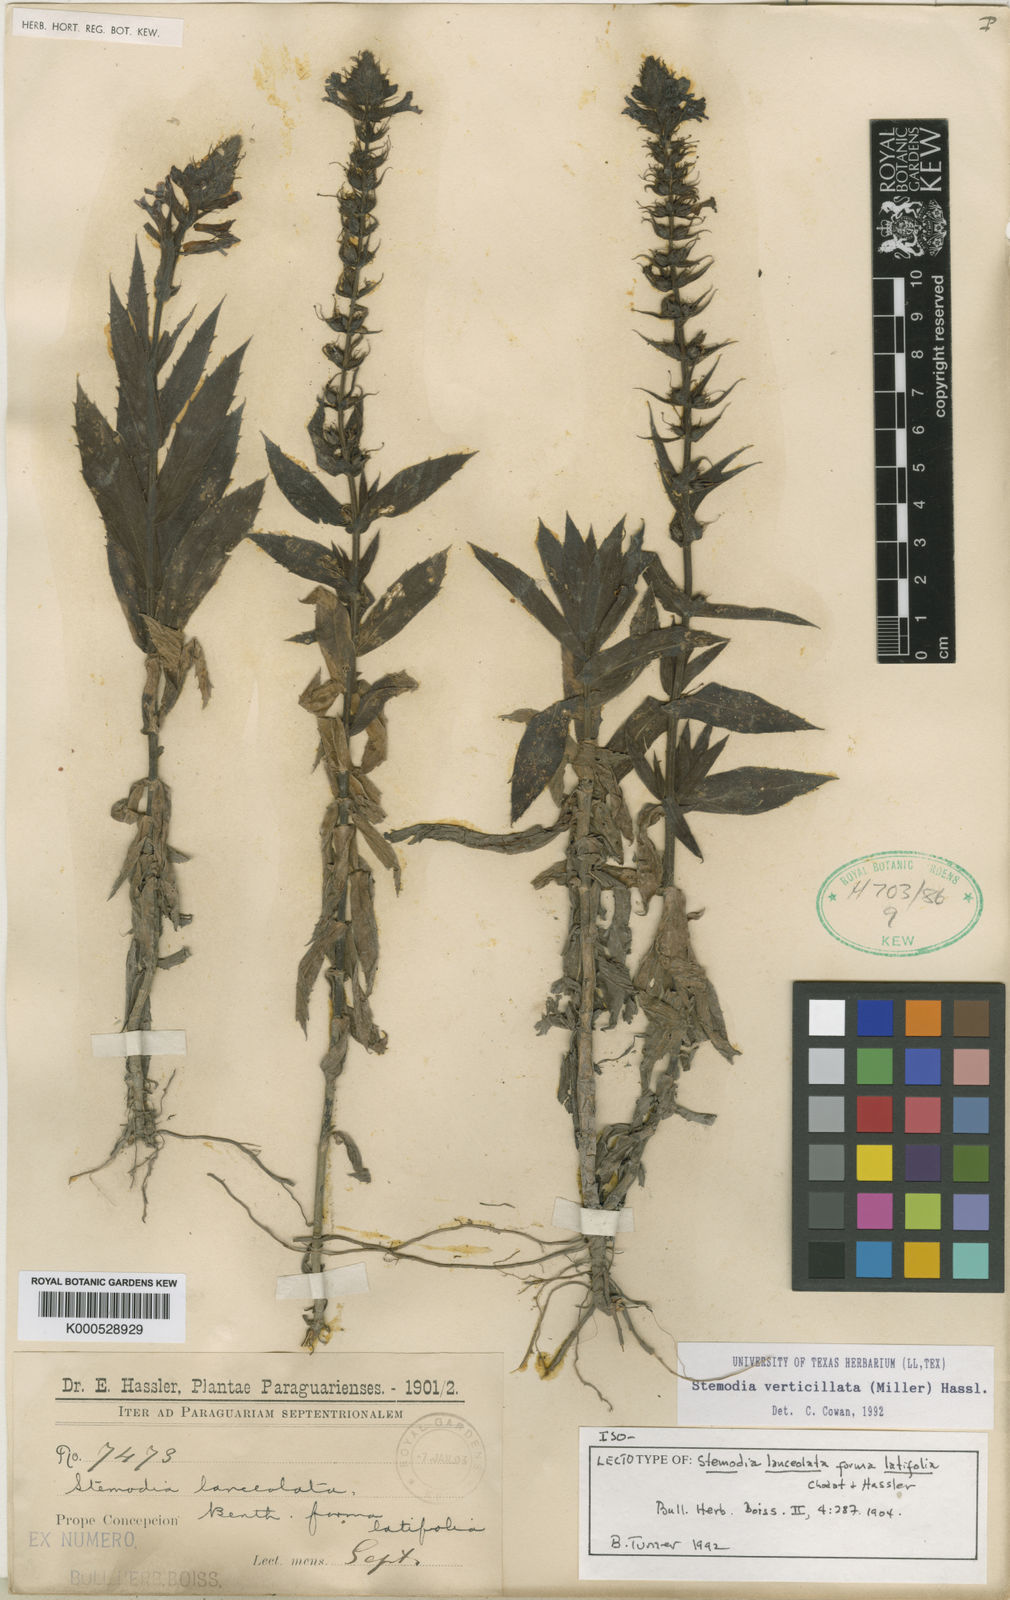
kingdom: Plantae
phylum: Tracheophyta
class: Magnoliopsida
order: Lamiales
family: Plantaginaceae
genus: Stemodia
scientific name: Stemodia lanceolata
